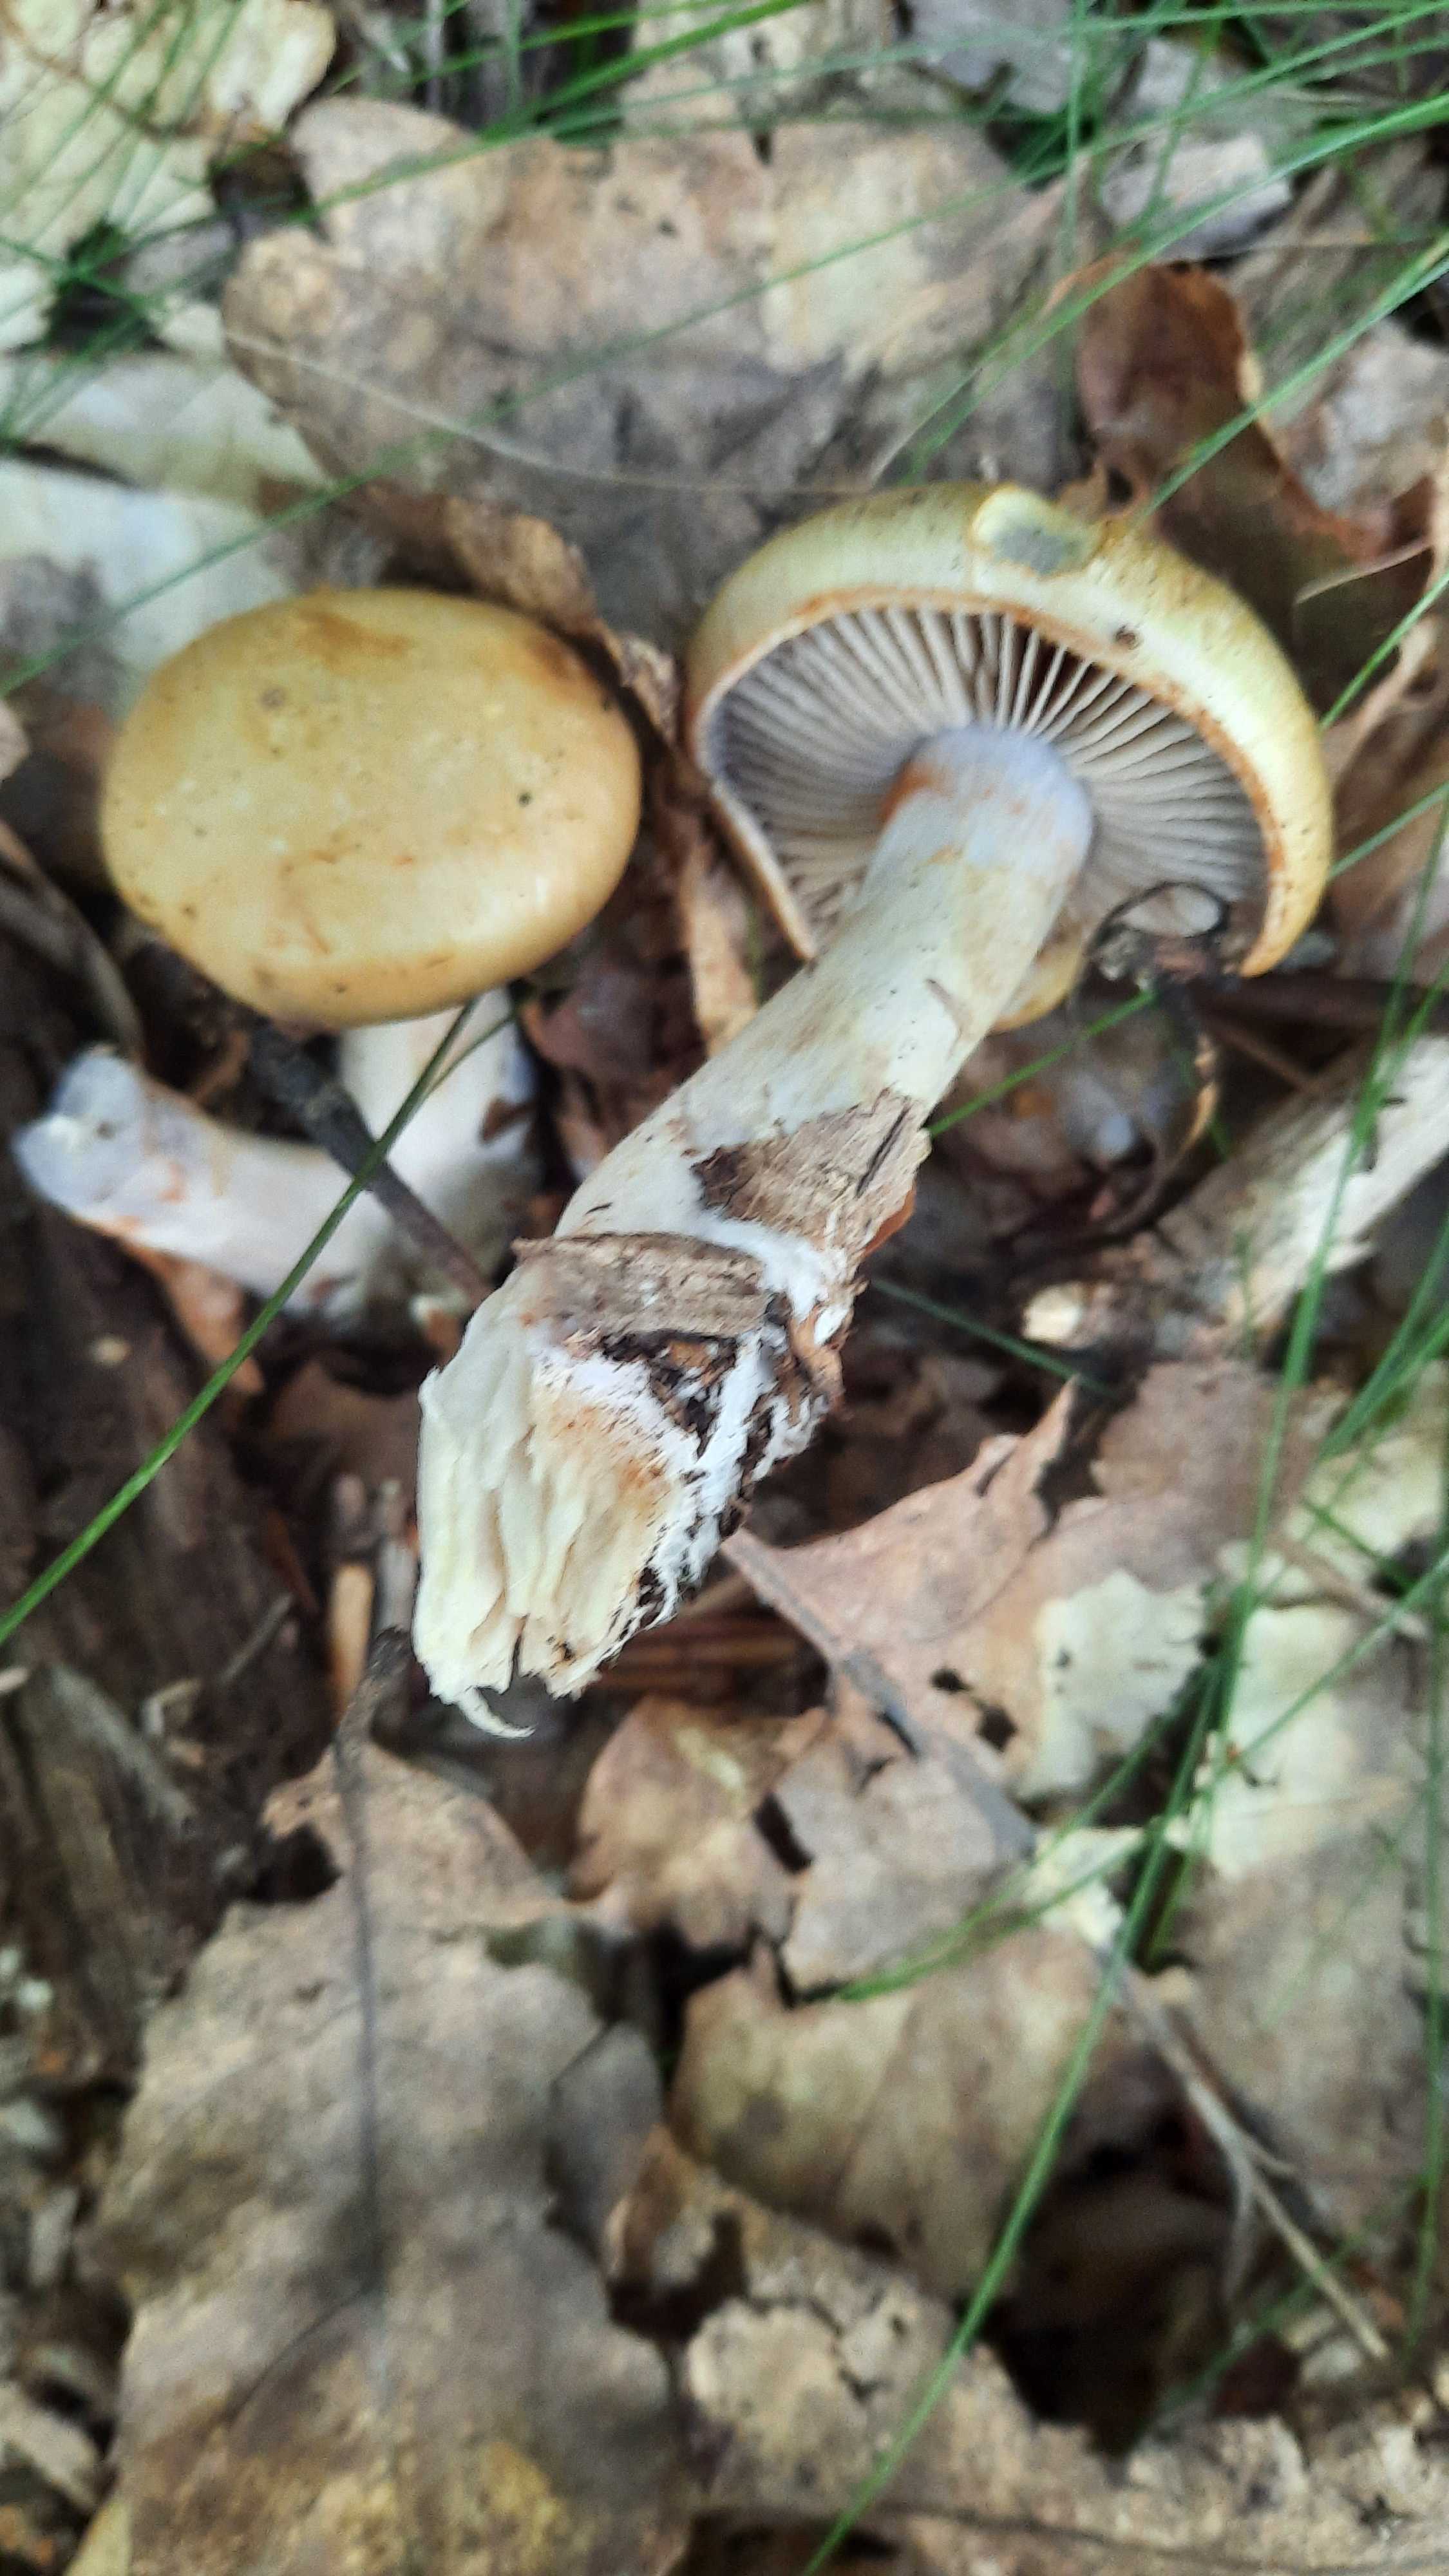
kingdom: Fungi
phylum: Basidiomycota
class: Agaricomycetes
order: Agaricales
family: Cortinariaceae
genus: Cortinarius
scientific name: Cortinarius
